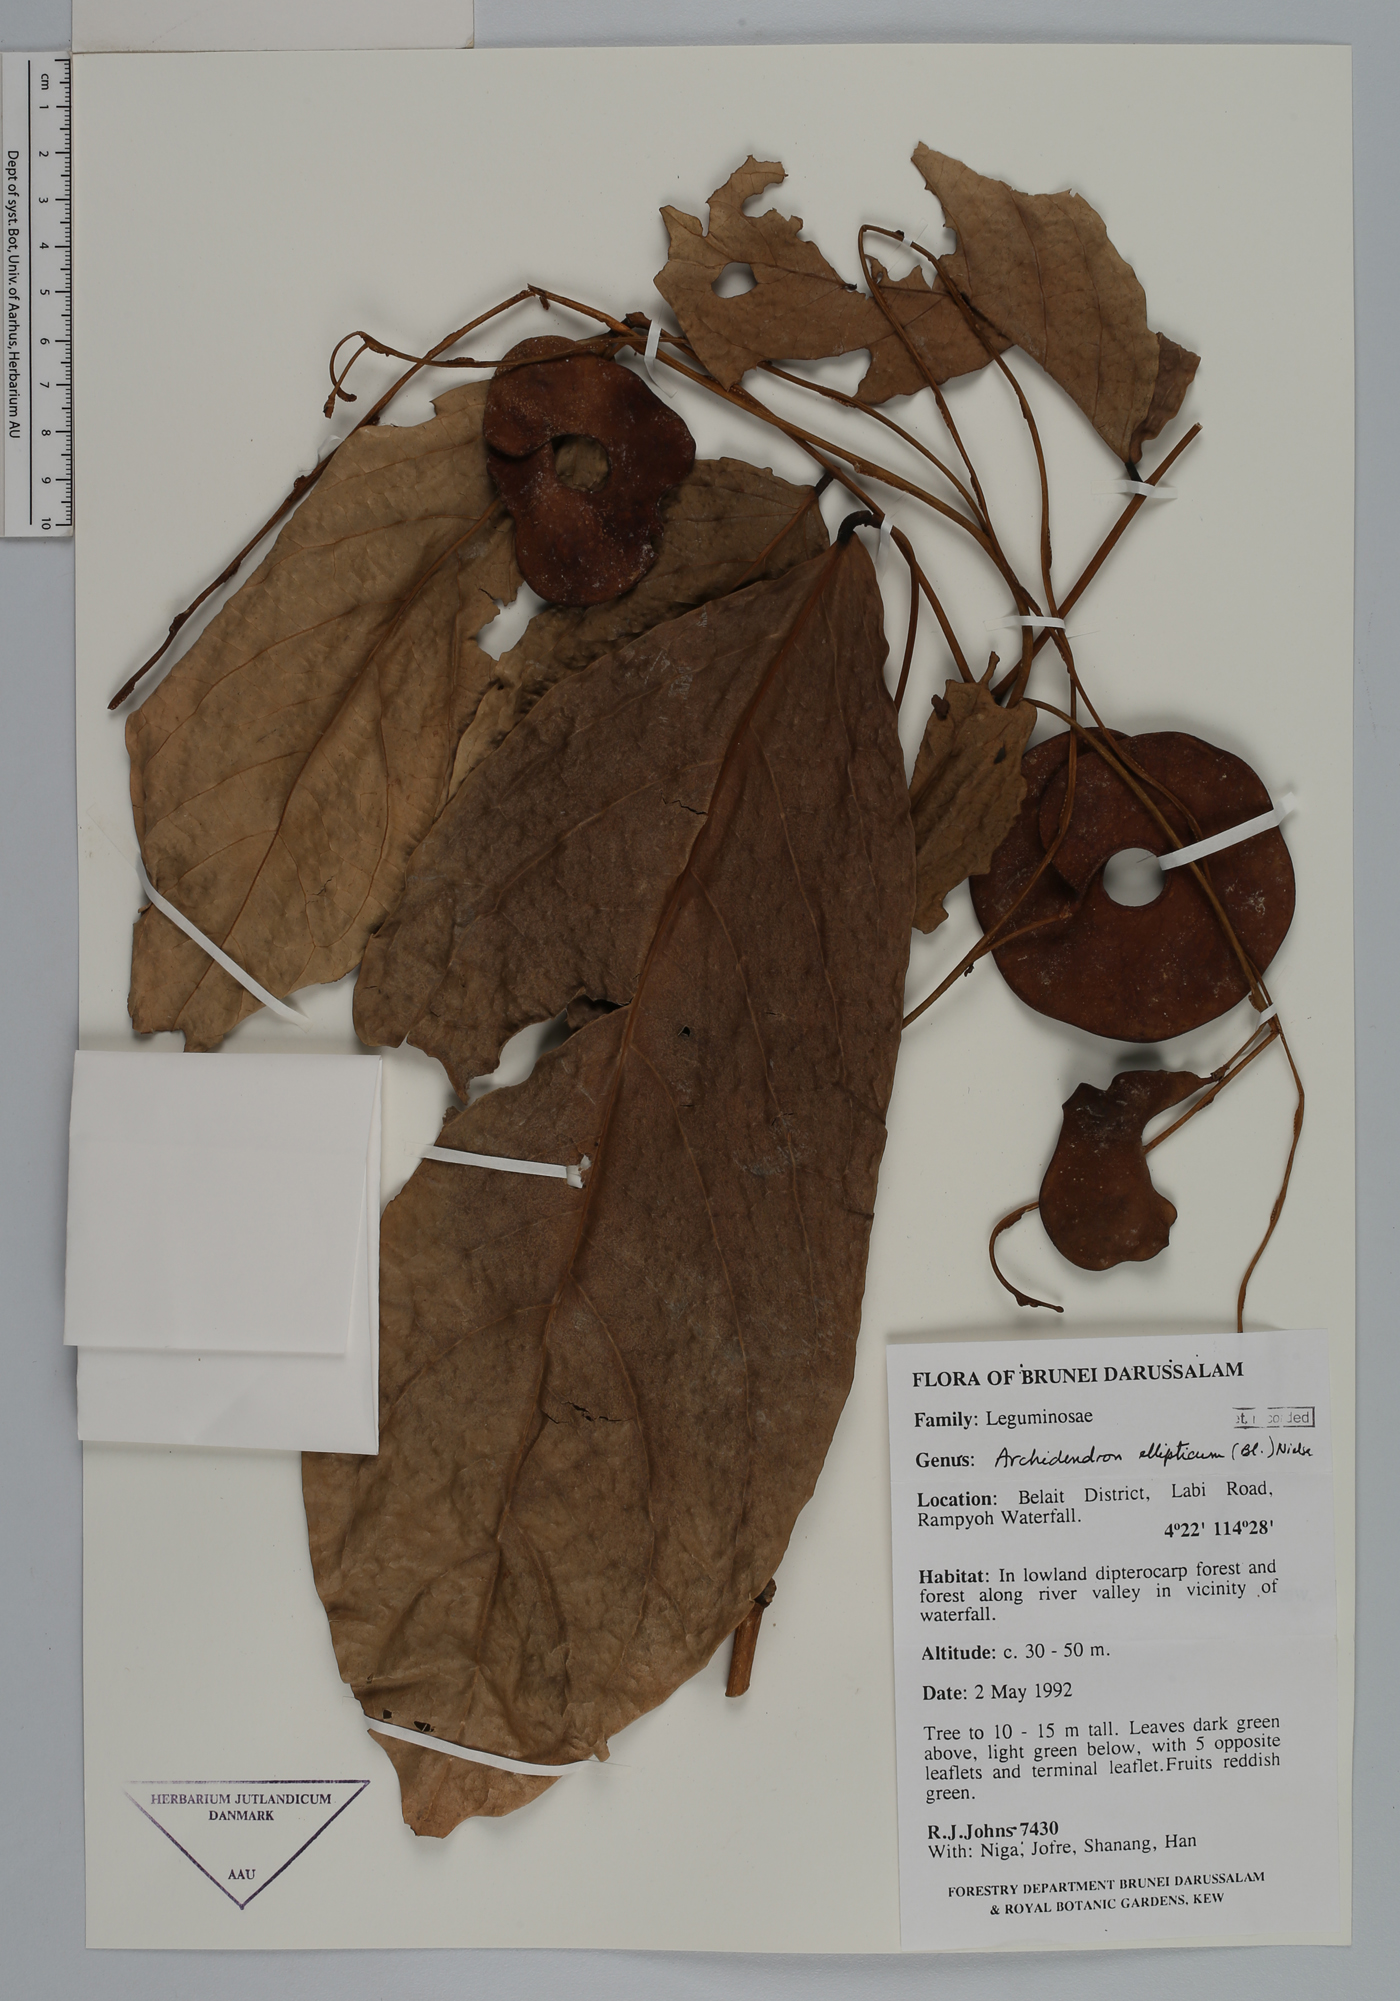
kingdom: Plantae
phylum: Tracheophyta
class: Magnoliopsida
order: Fabales
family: Fabaceae
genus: Archidendron
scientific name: Archidendron ellipticum
